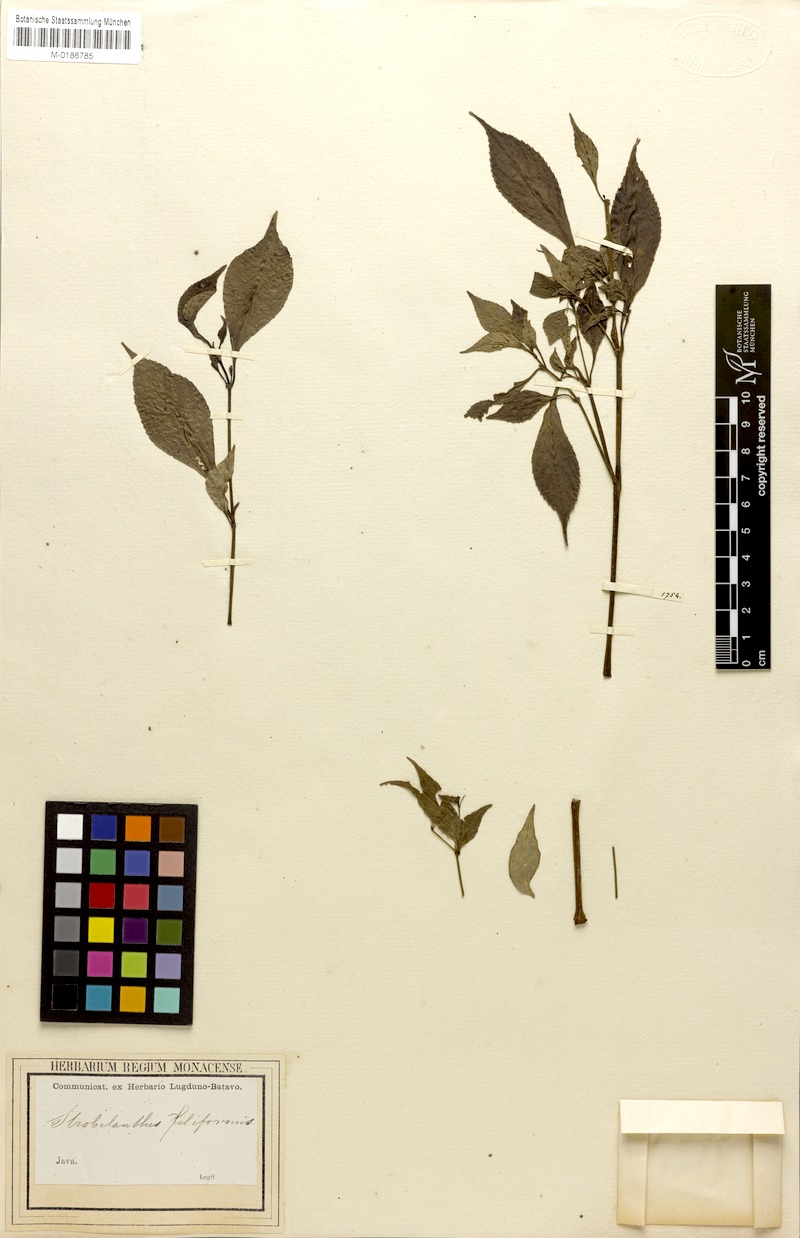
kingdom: Plantae
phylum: Tracheophyta
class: Magnoliopsida
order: Lamiales
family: Acanthaceae
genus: Strobilanthes
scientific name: Strobilanthes filiformis
